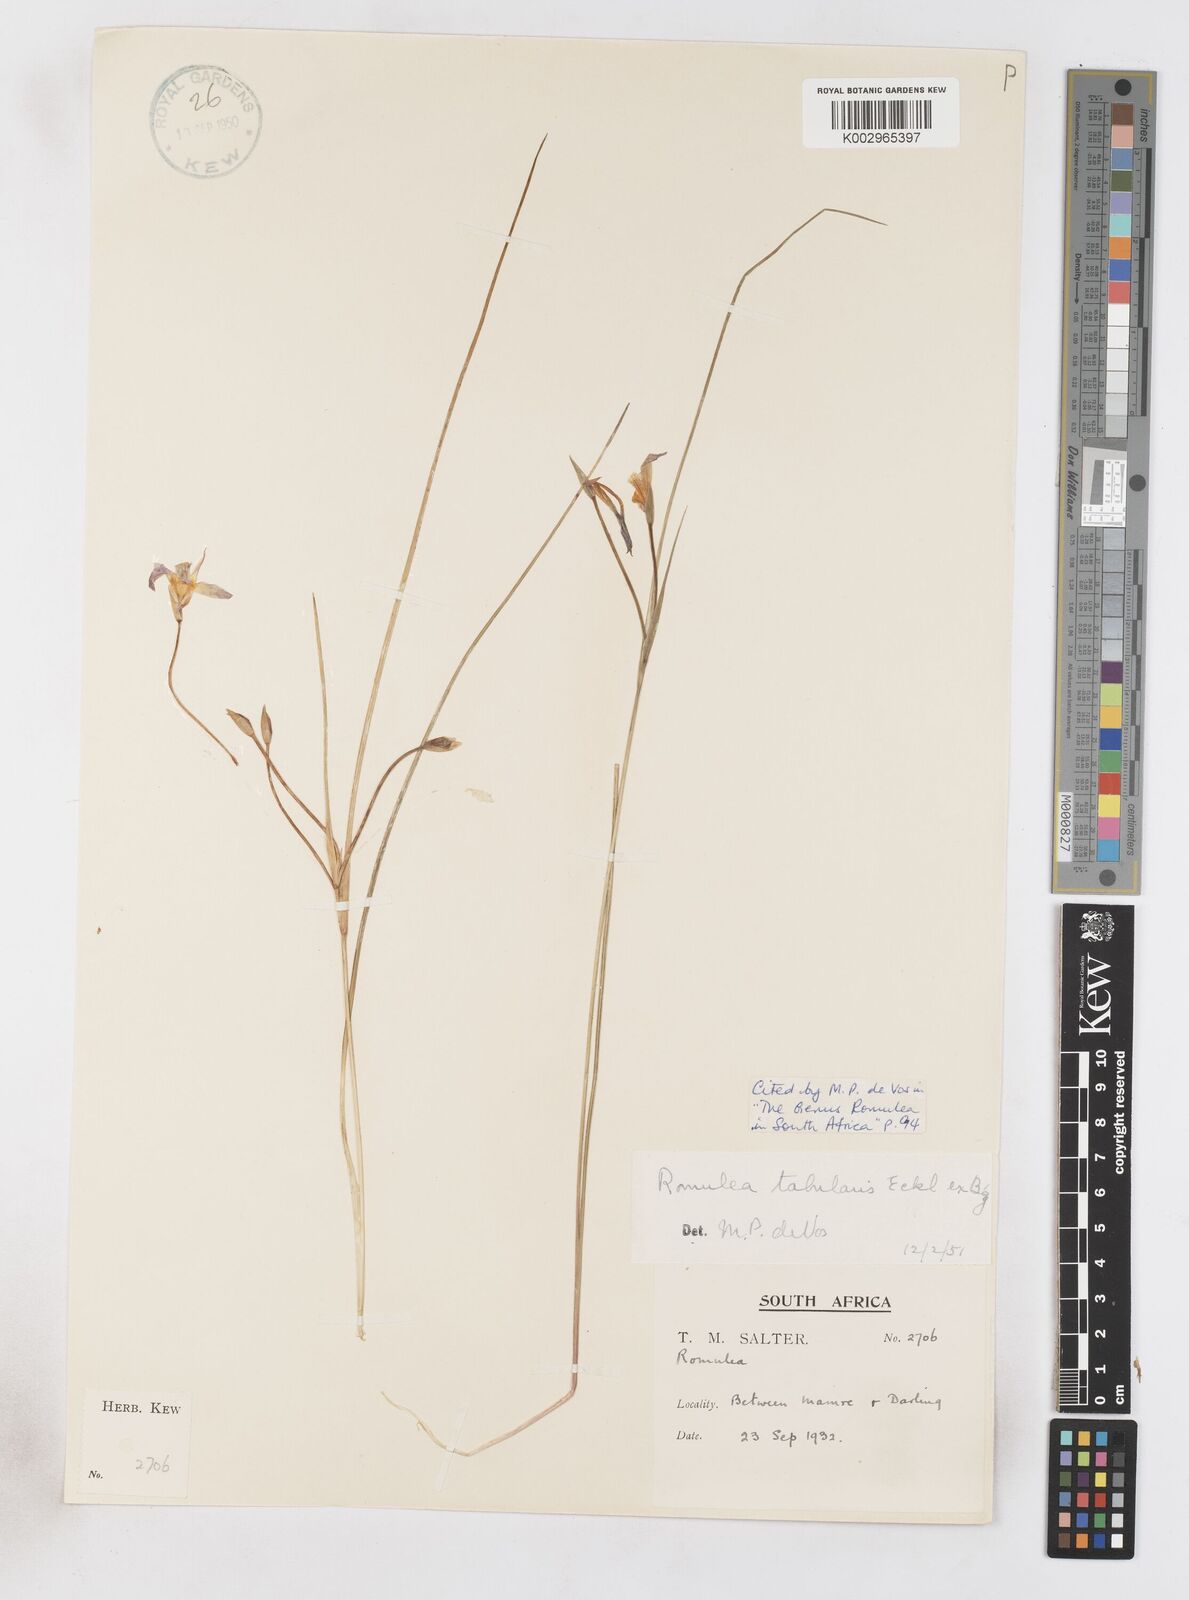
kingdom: Plantae
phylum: Tracheophyta
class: Liliopsida
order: Asparagales
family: Iridaceae
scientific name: Iridaceae
